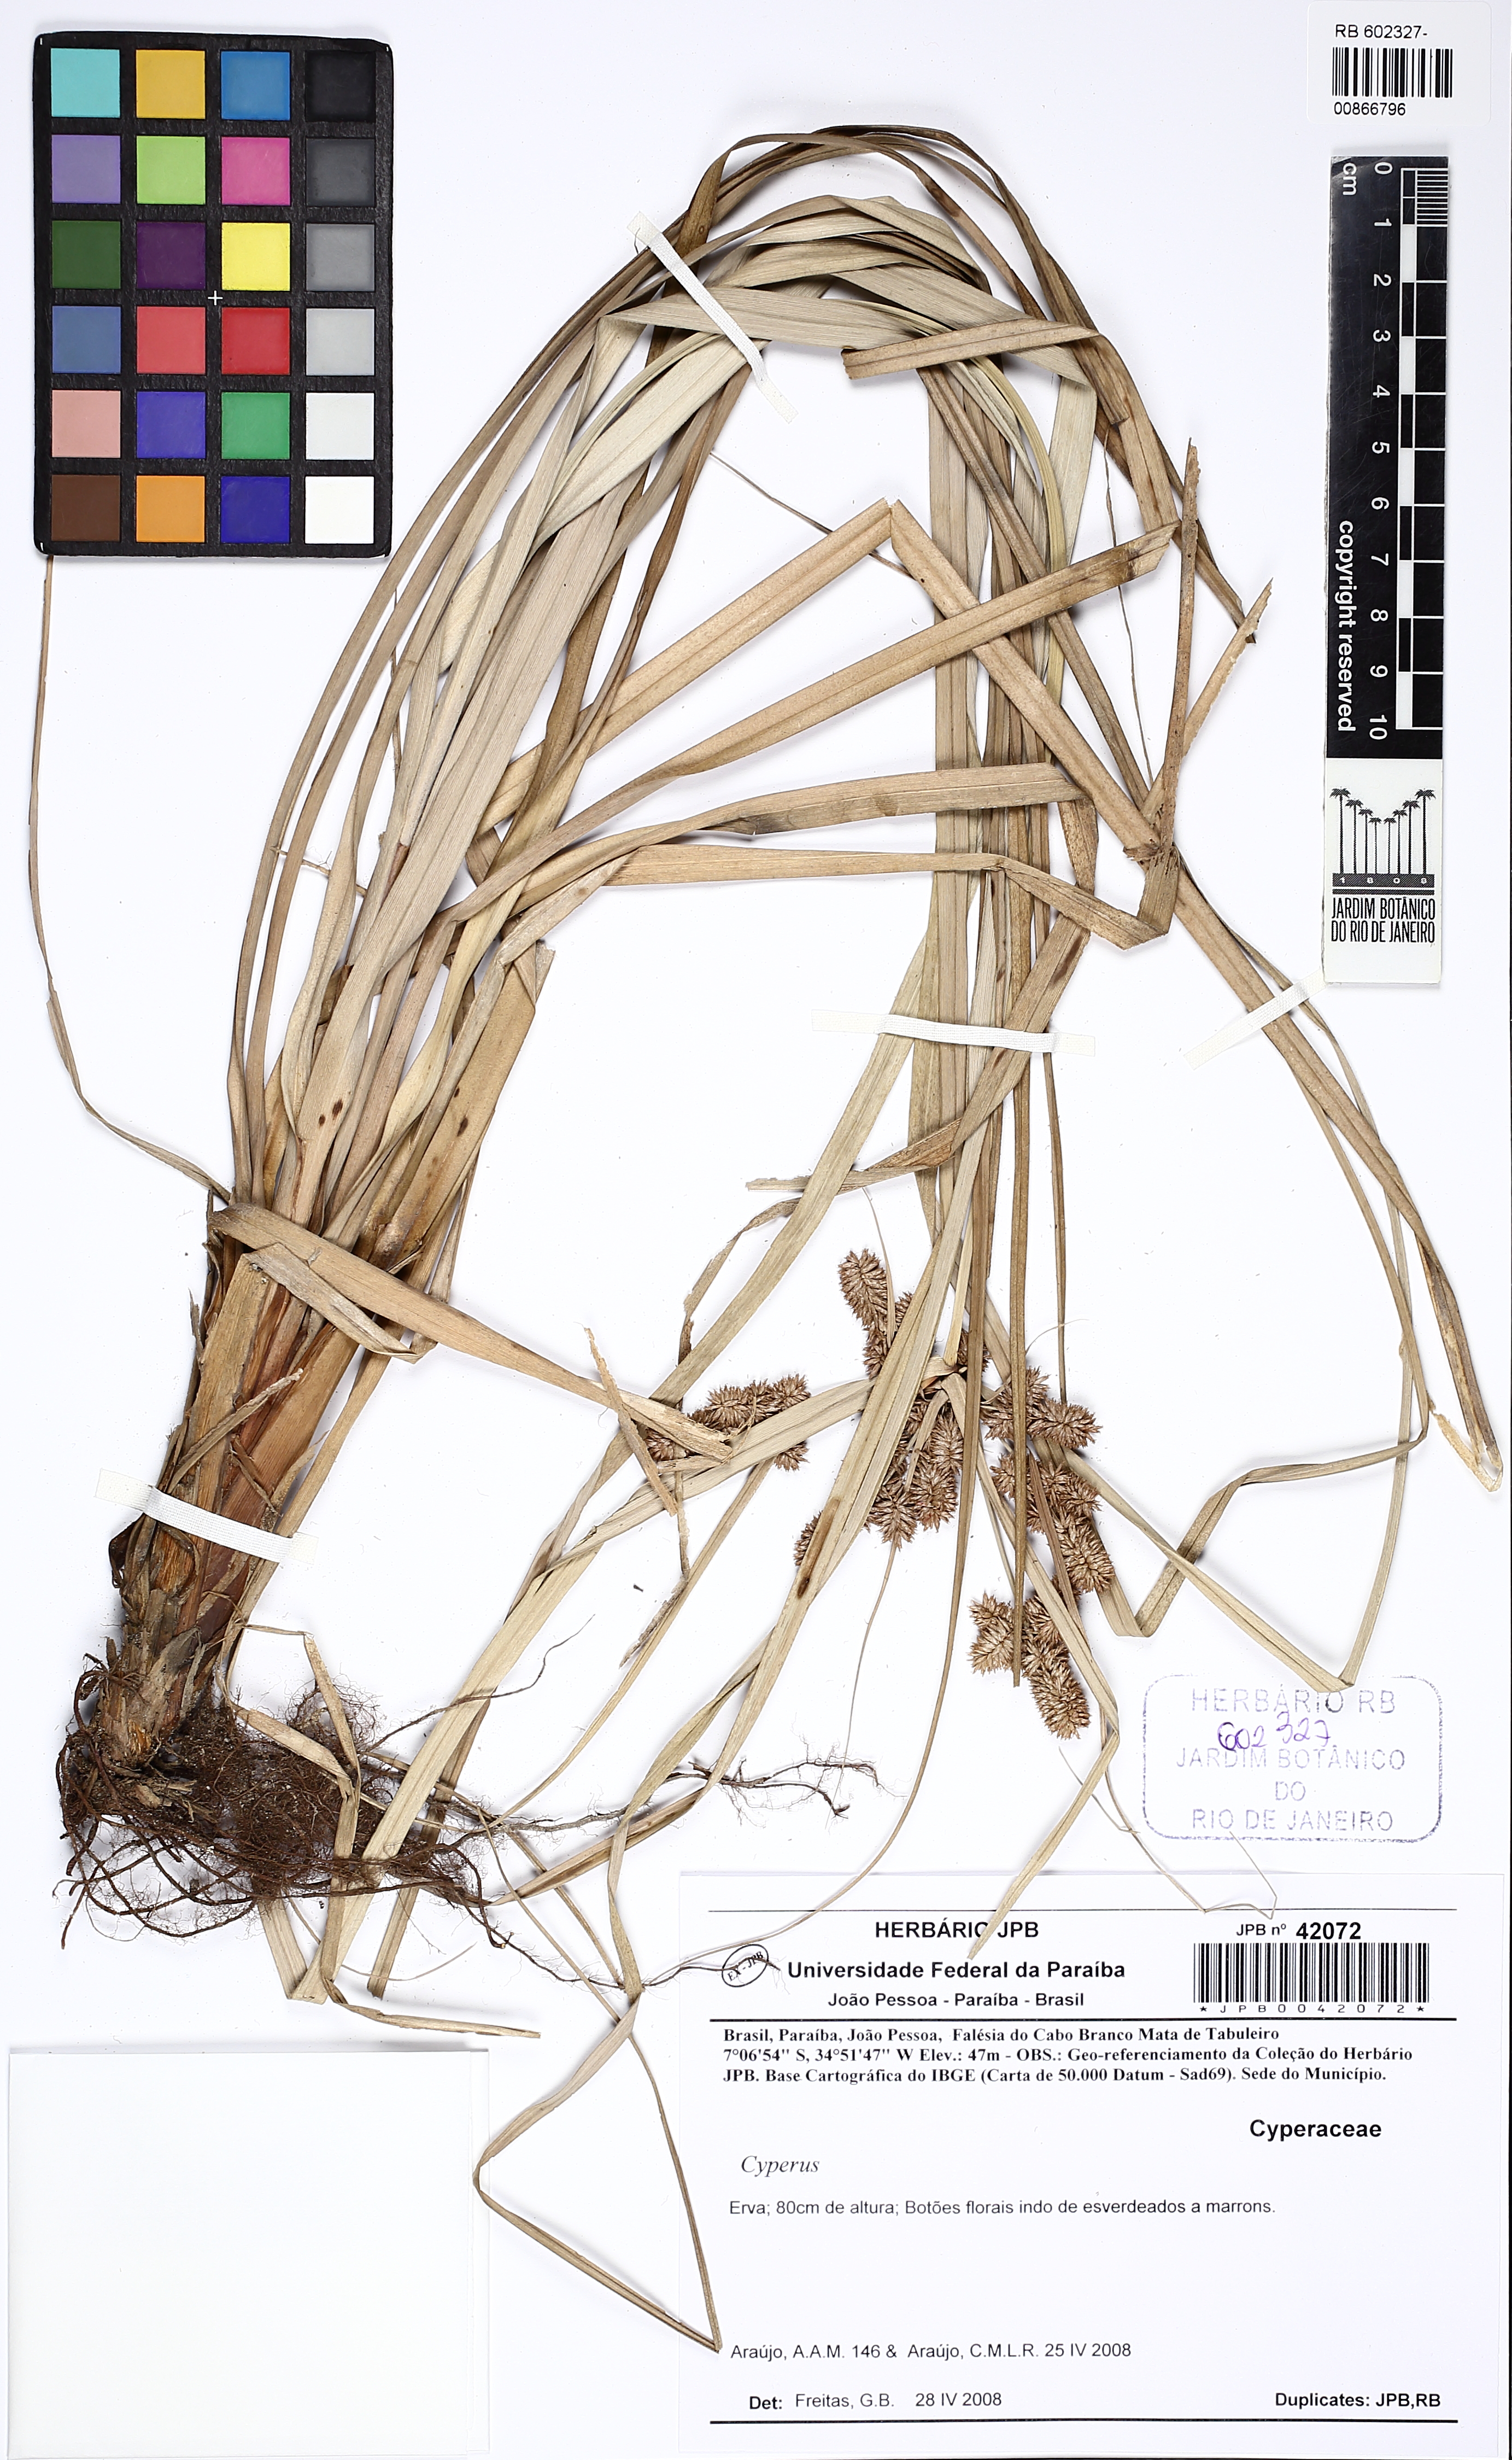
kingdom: Plantae
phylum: Tracheophyta
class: Liliopsida
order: Poales
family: Cyperaceae
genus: Cyperus
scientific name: Cyperus ligularis
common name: Swamp flat sedge
